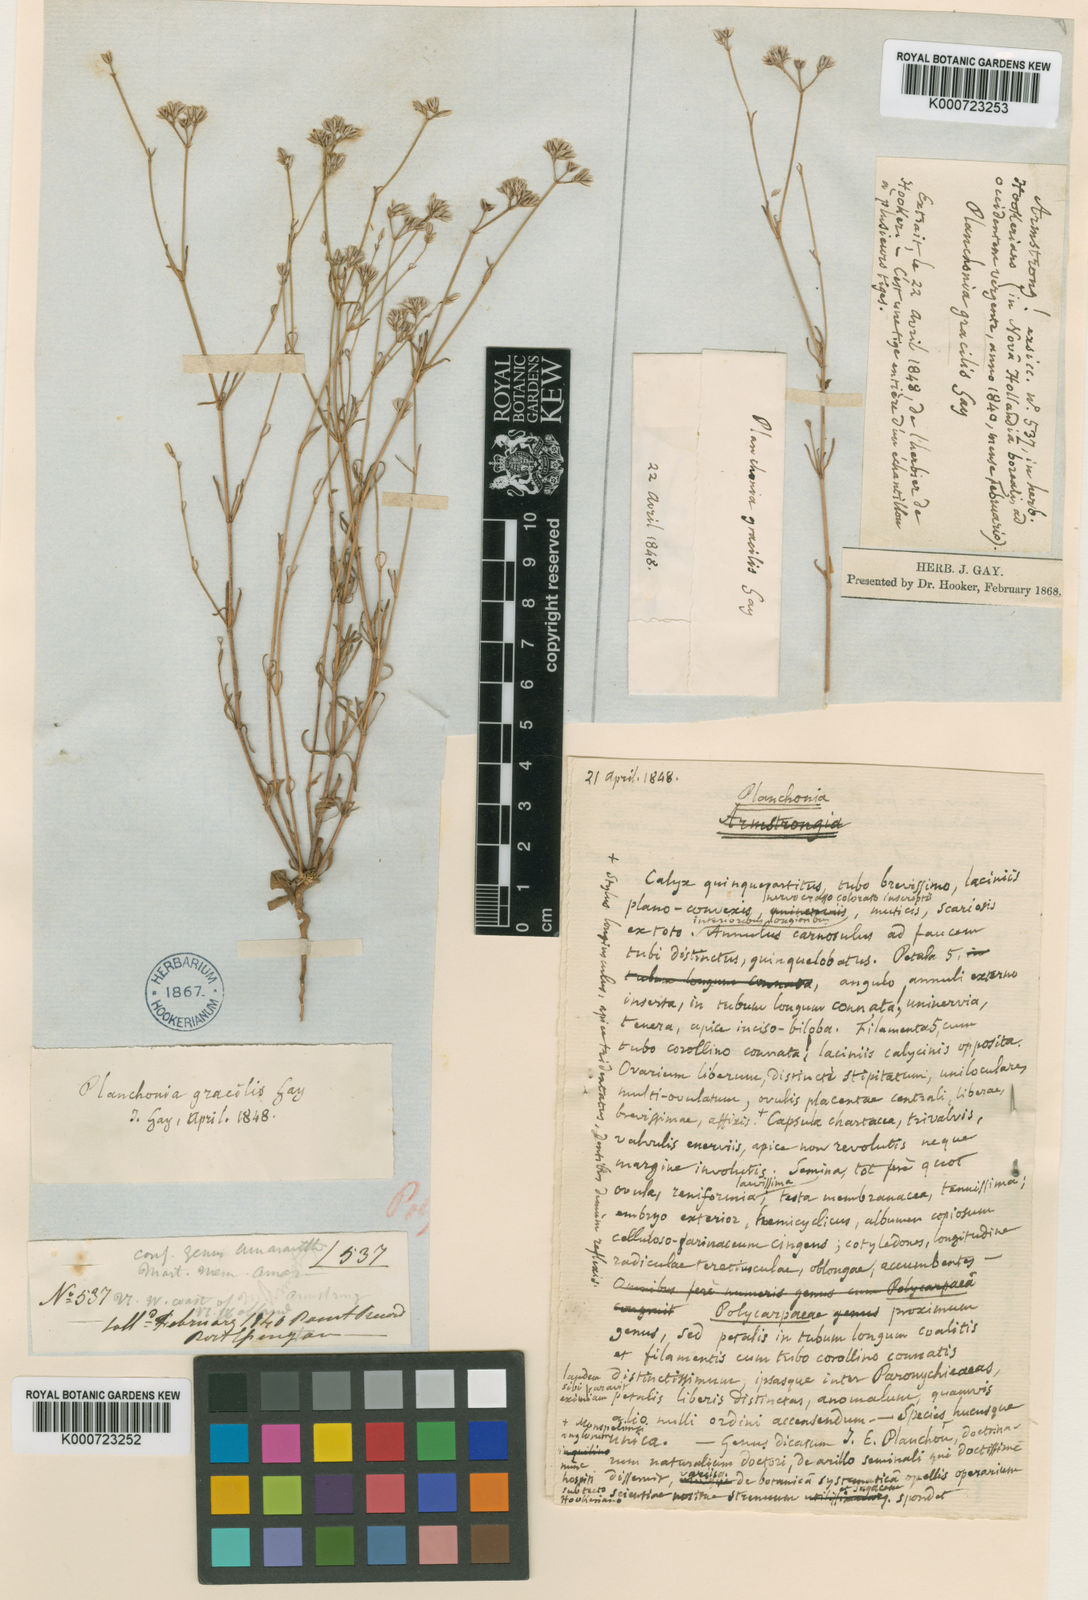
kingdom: Plantae
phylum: Tracheophyta
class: Magnoliopsida
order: Caryophyllales
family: Caryophyllaceae
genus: Polycarpaea
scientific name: Polycarpaea breviflora
